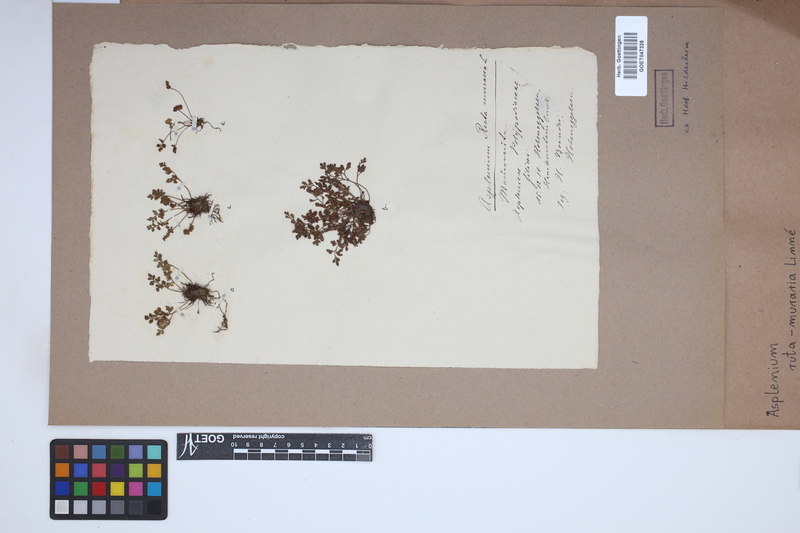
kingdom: Plantae
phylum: Tracheophyta
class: Polypodiopsida
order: Polypodiales
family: Aspleniaceae
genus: Asplenium
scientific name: Asplenium ruta-muraria
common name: Wall-rue
